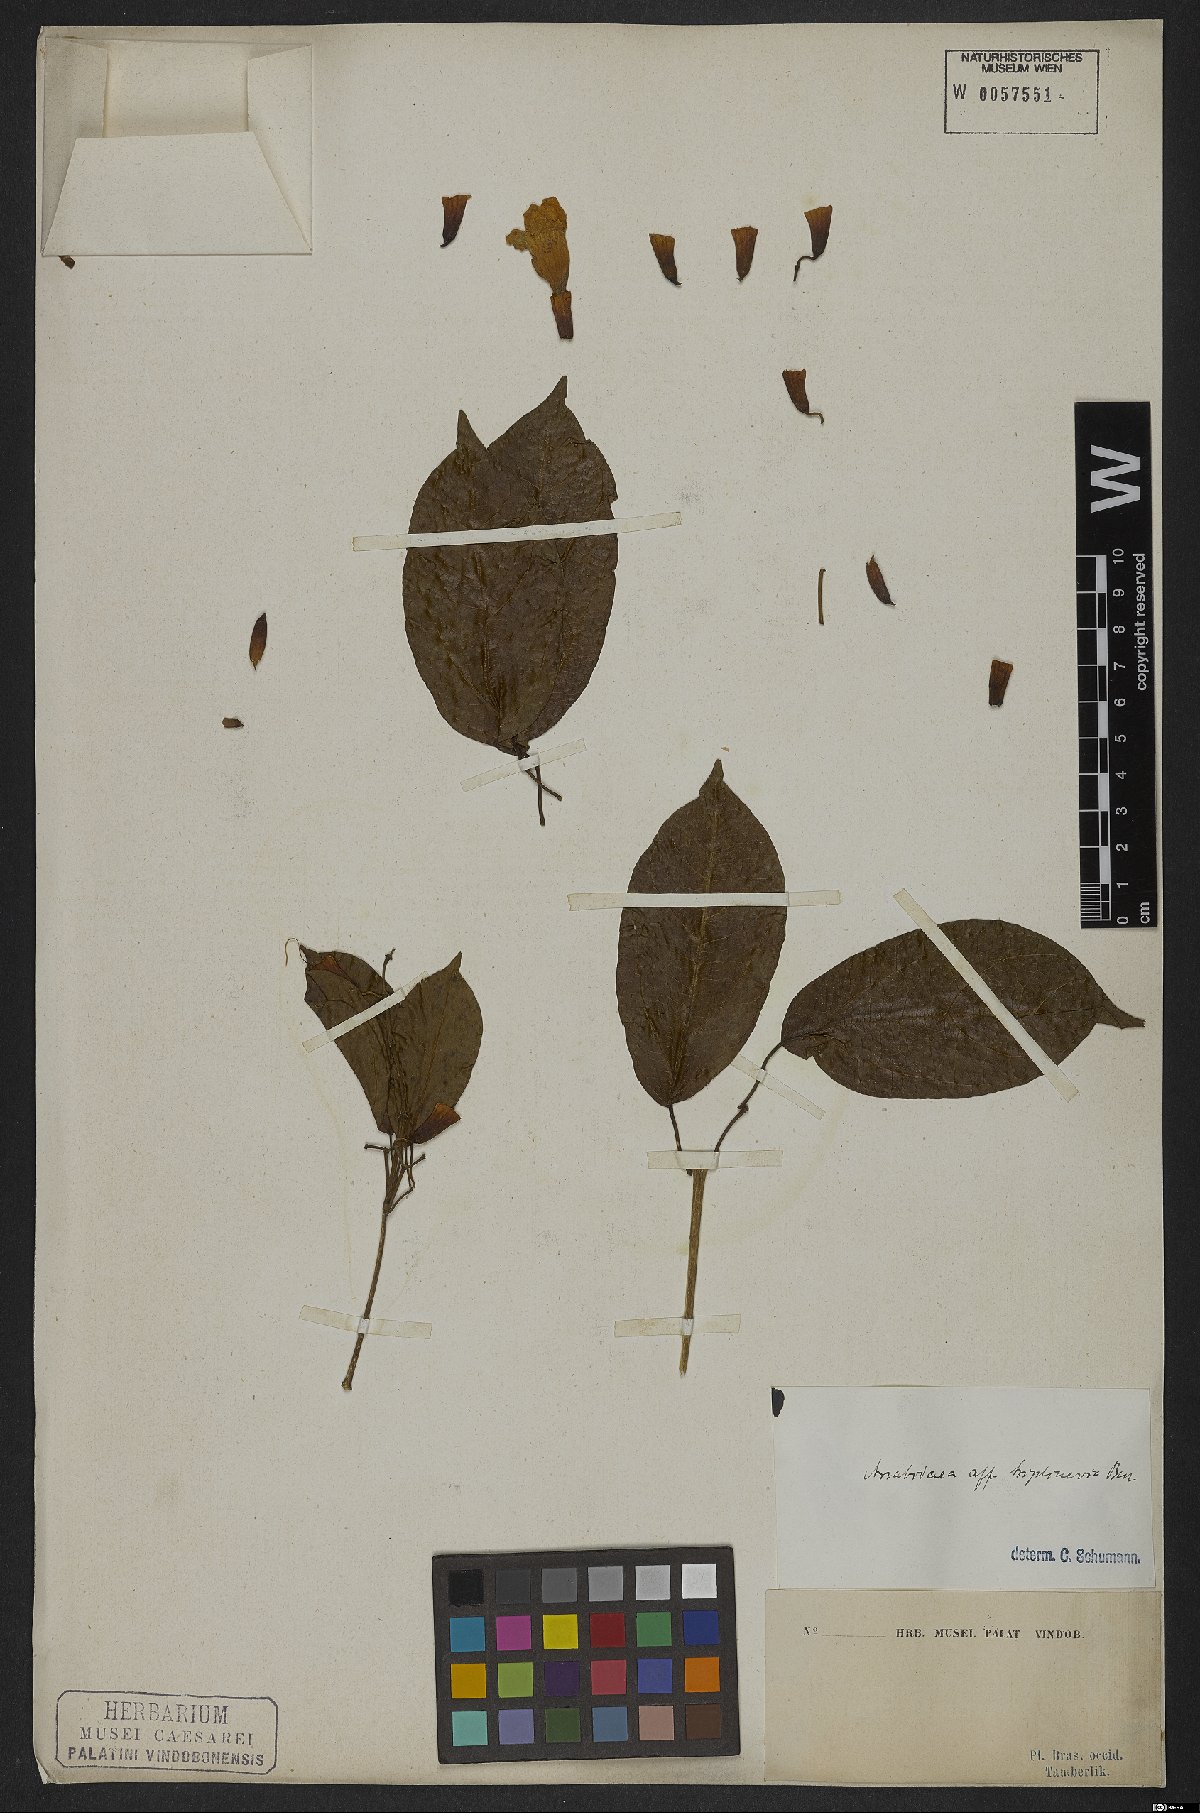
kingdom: Plantae
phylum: Tracheophyta
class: Magnoliopsida
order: Lamiales
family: Bignoniaceae
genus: Fridericia
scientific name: Fridericia triplinervia
